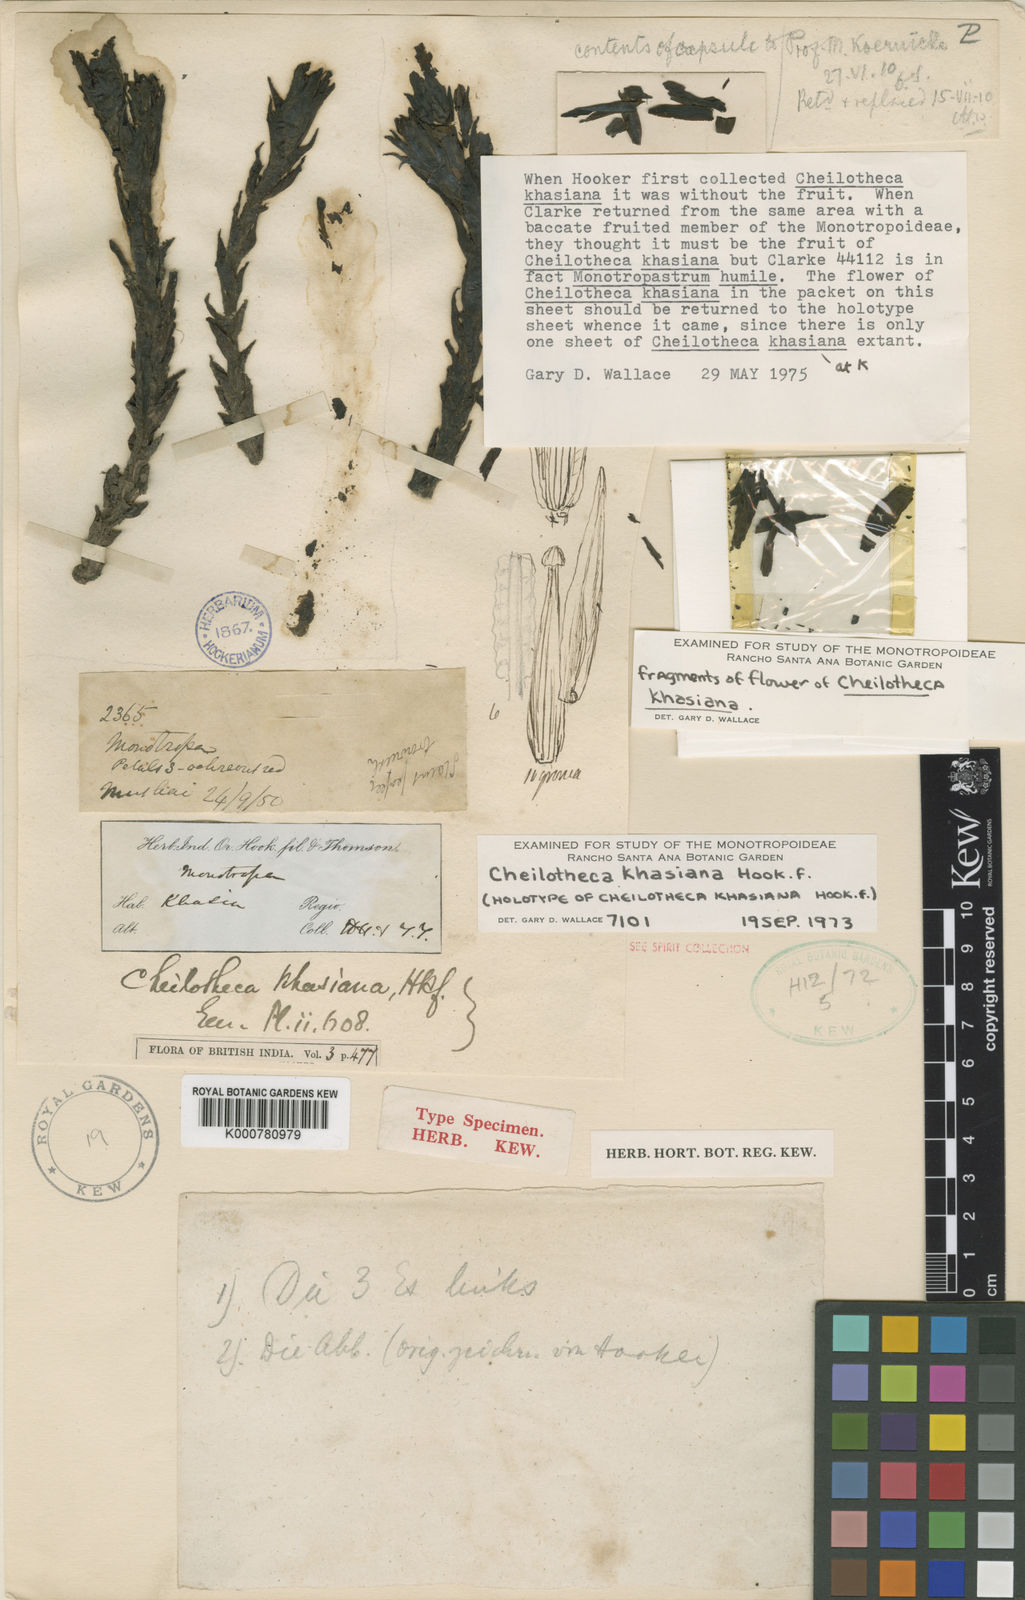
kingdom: Plantae
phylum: Tracheophyta
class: Magnoliopsida
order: Ericales
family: Ericaceae
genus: Cheilotheca
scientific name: Cheilotheca khasiana
